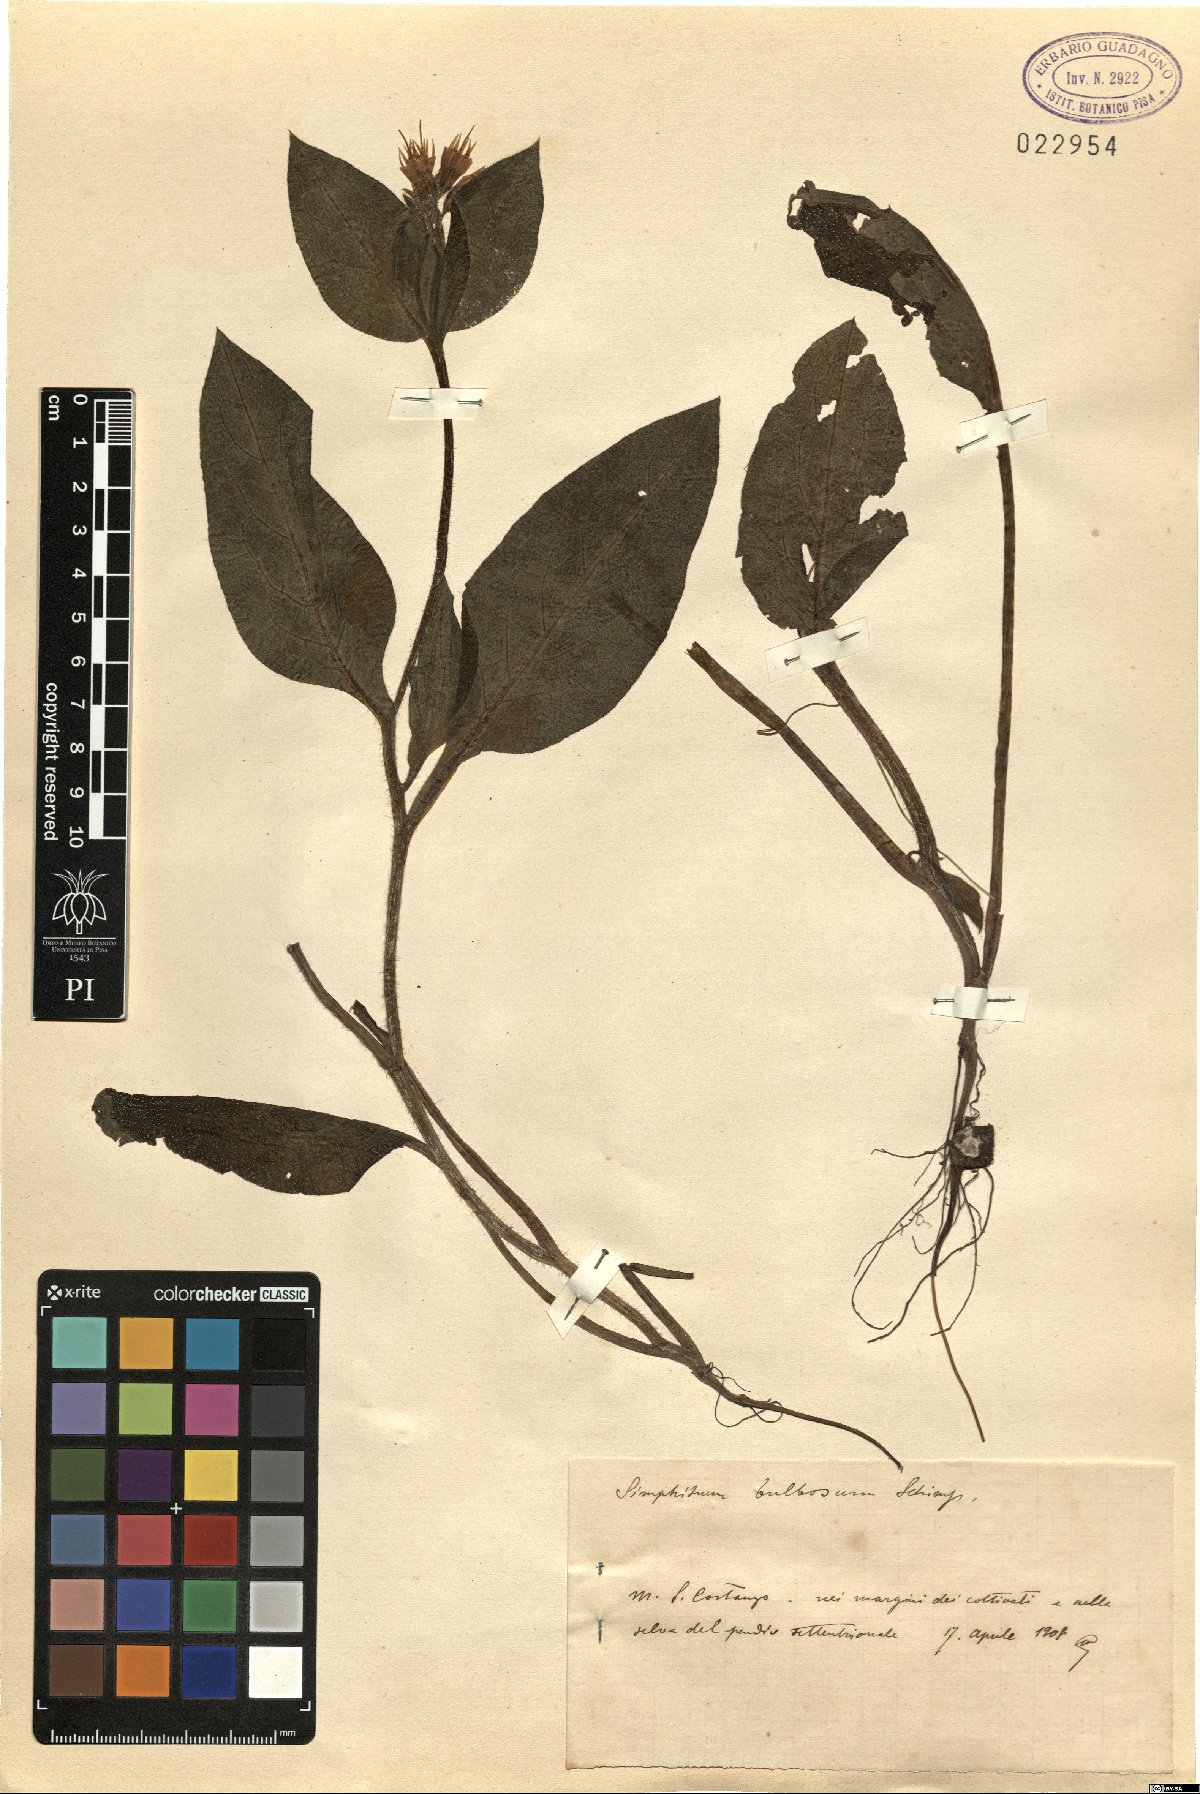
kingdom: Plantae
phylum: Tracheophyta
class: Magnoliopsida
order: Boraginales
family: Boraginaceae
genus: Symphytum
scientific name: Symphytum bulbosum
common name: Bulbous comfrey
